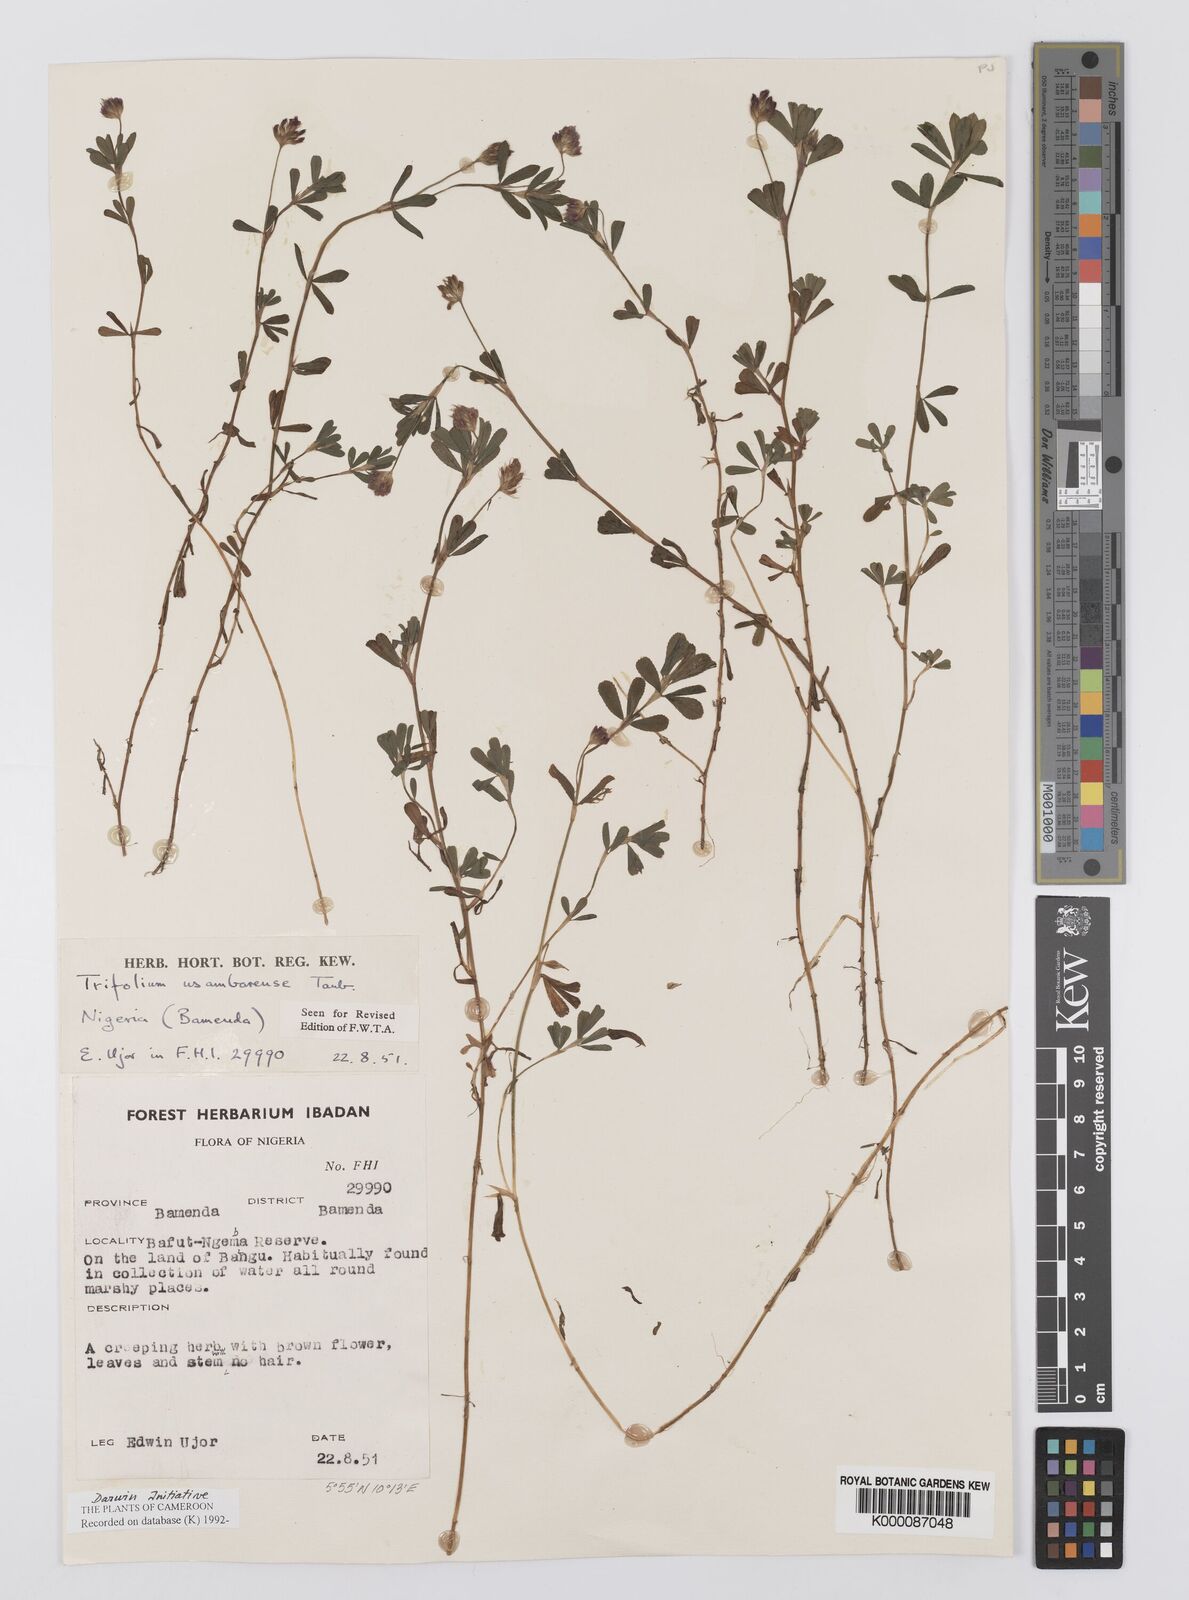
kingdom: Plantae
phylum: Tracheophyta
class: Magnoliopsida
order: Fabales
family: Fabaceae
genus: Trifolium
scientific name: Trifolium usambarense
